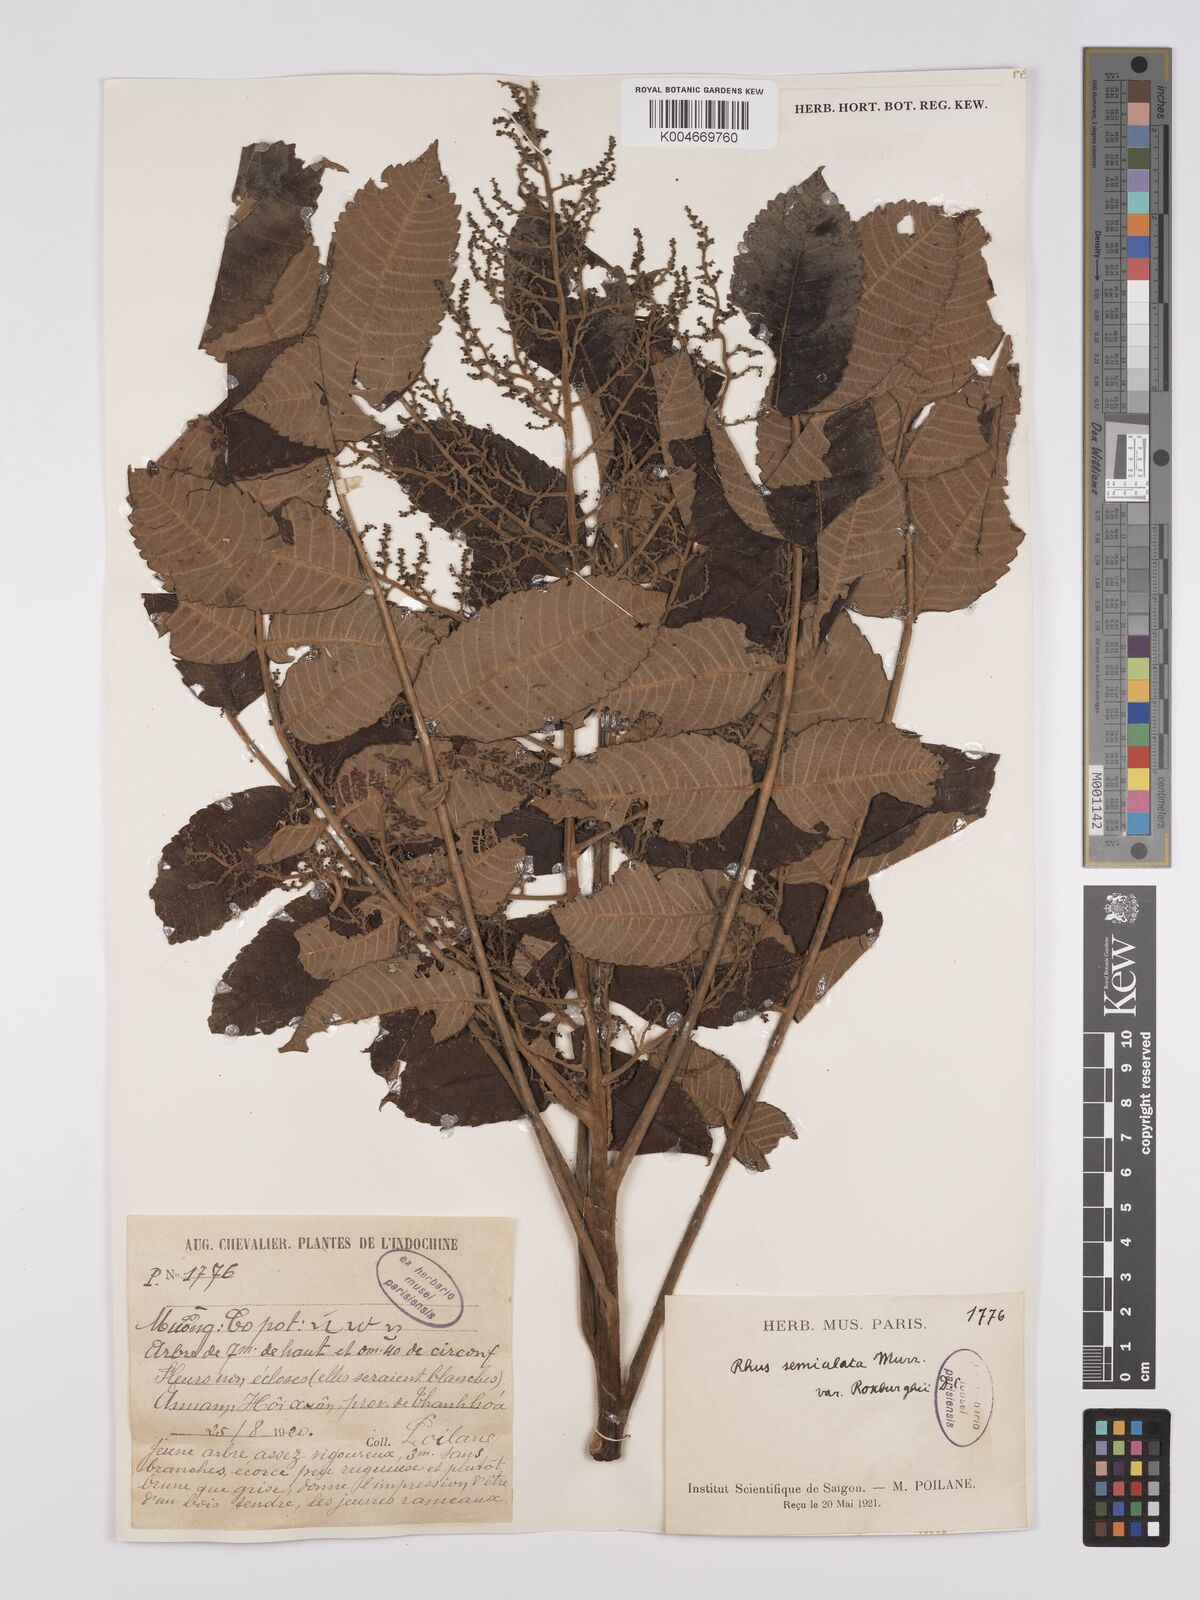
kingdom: Plantae
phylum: Tracheophyta
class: Magnoliopsida
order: Sapindales
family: Anacardiaceae
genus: Rhus
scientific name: Rhus chinensis
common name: Chinese gall
